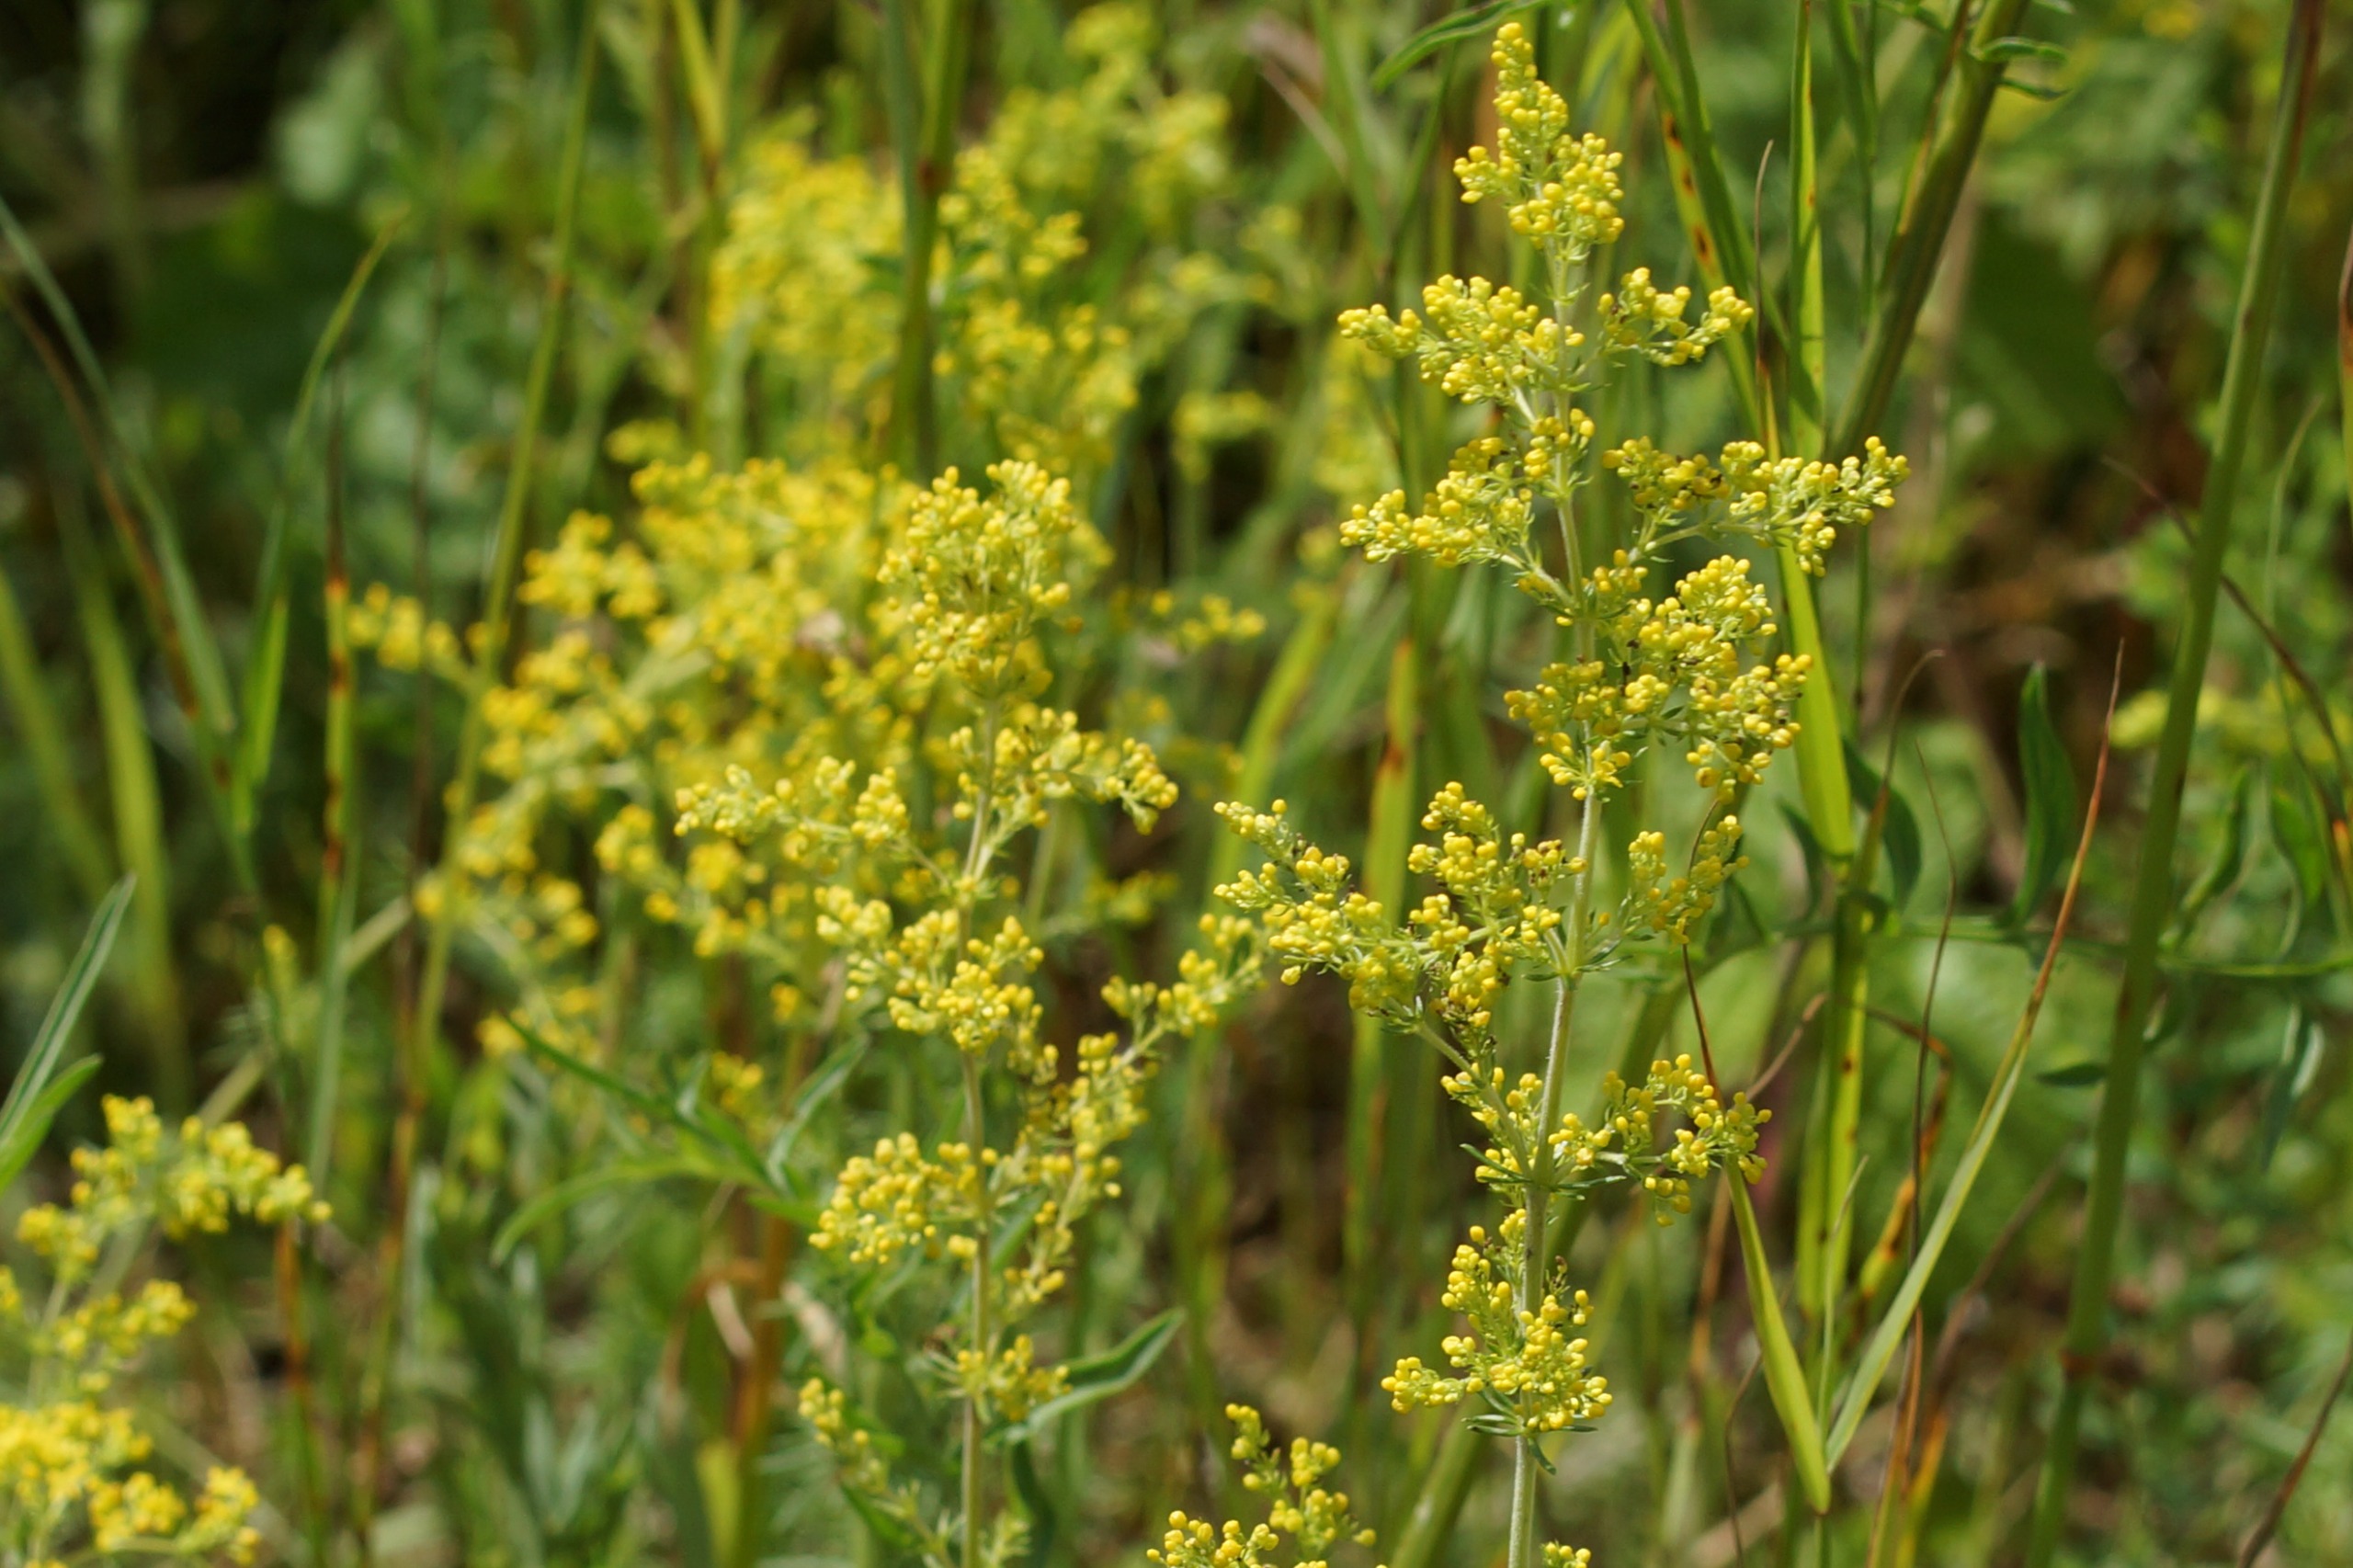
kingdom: Plantae
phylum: Tracheophyta
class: Magnoliopsida
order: Gentianales
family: Rubiaceae
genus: Galium
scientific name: Galium verum
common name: Gul snerre
